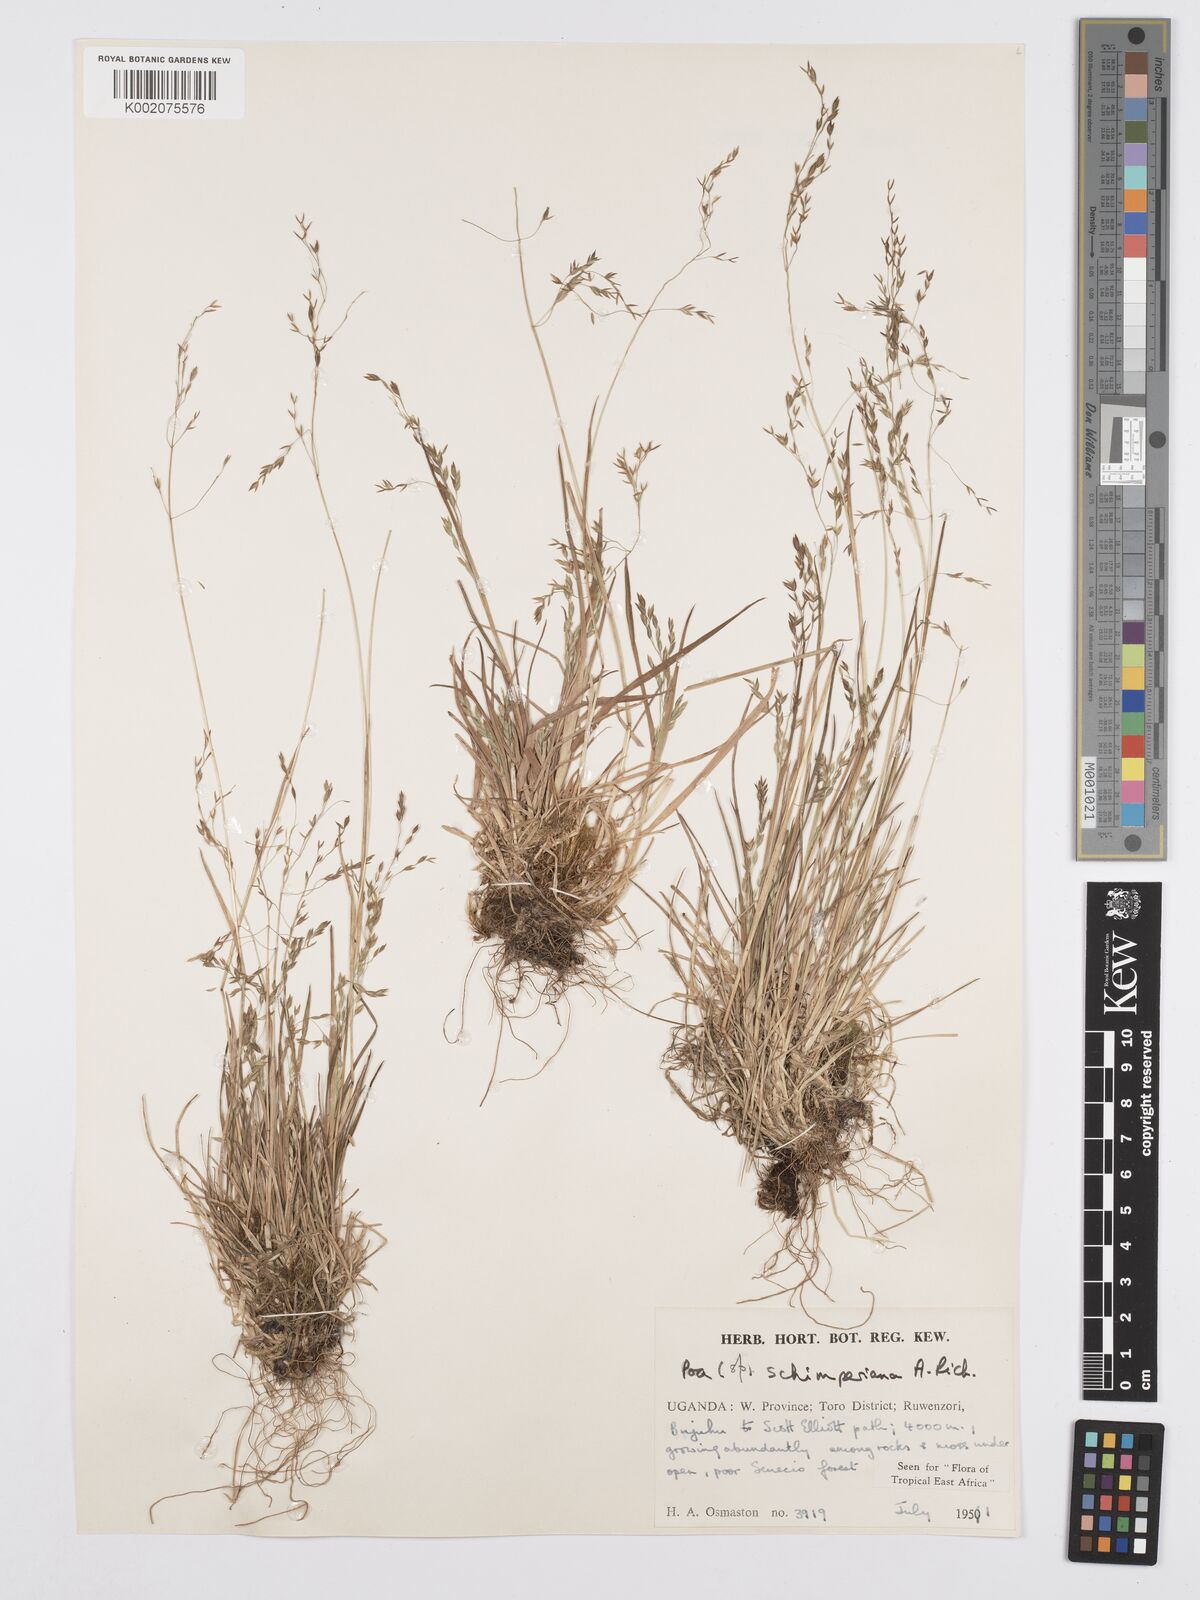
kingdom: Plantae
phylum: Tracheophyta
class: Liliopsida
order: Poales
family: Poaceae
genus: Poa
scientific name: Poa schimperiana
